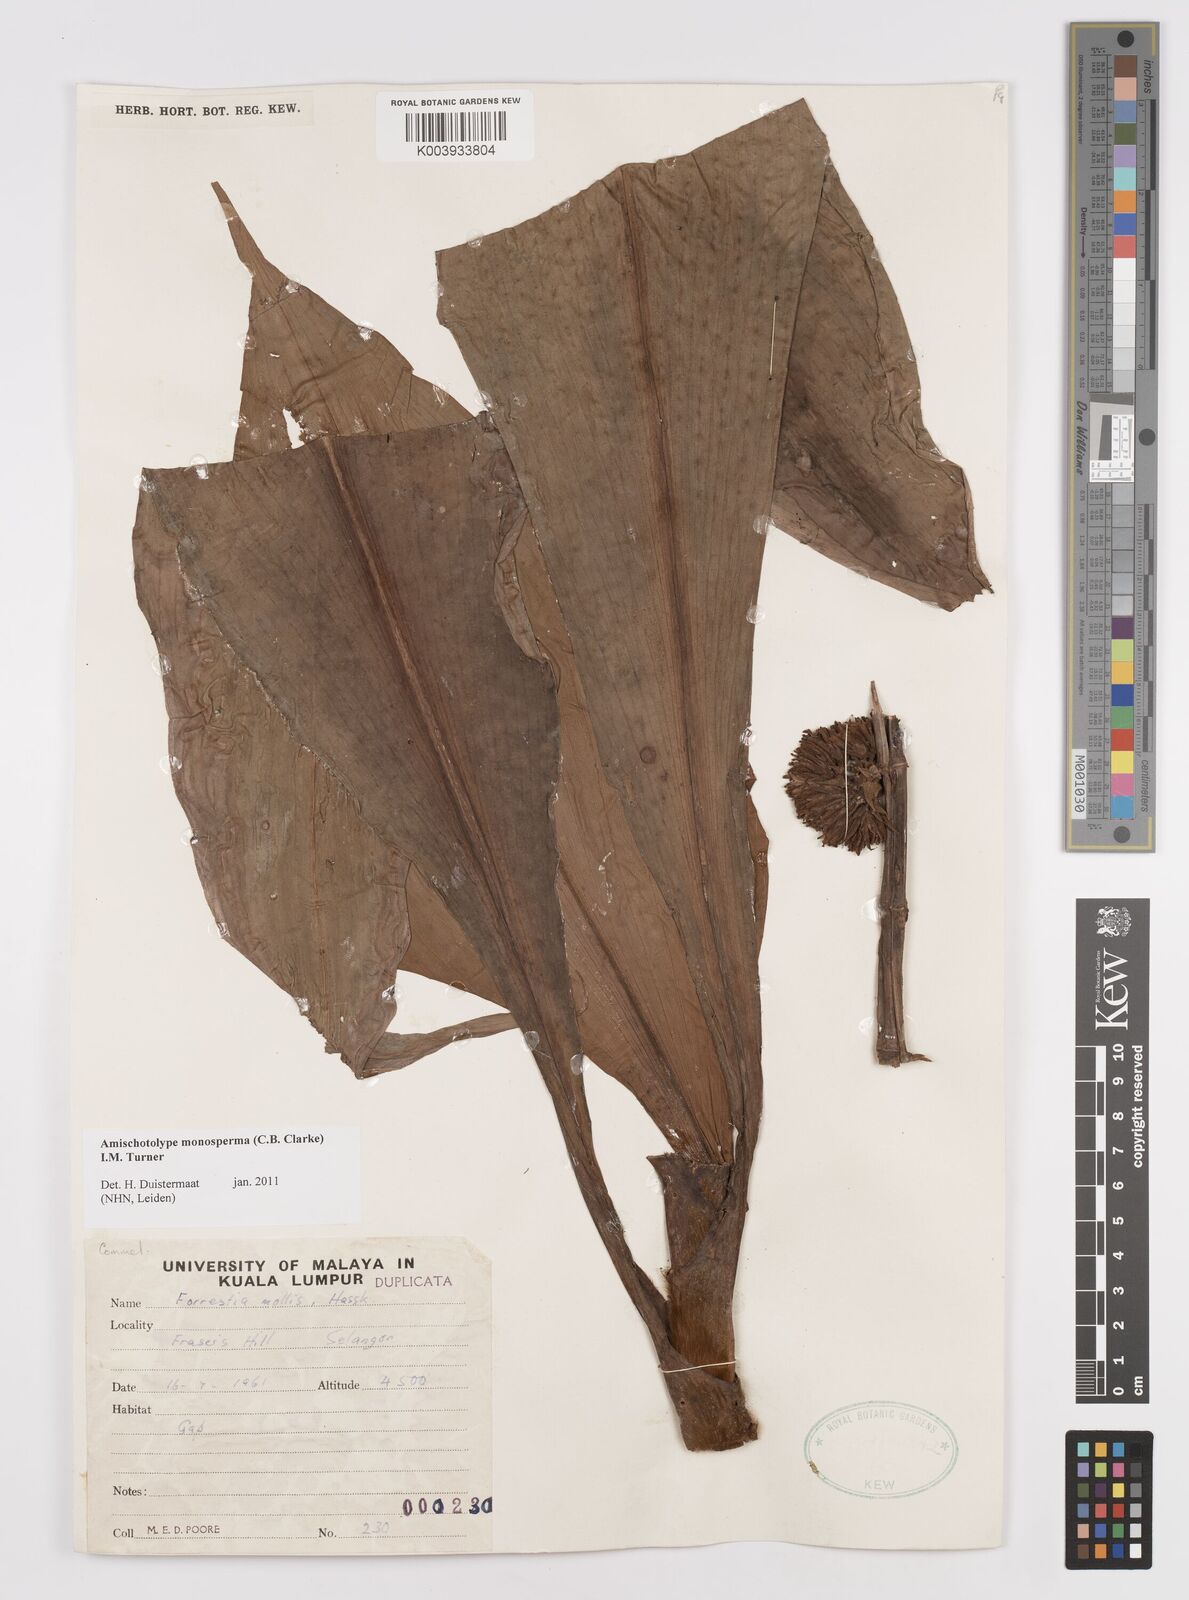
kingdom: Plantae
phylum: Tracheophyta
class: Liliopsida
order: Commelinales
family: Commelinaceae
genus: Amischotolype
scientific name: Amischotolype monosperma
